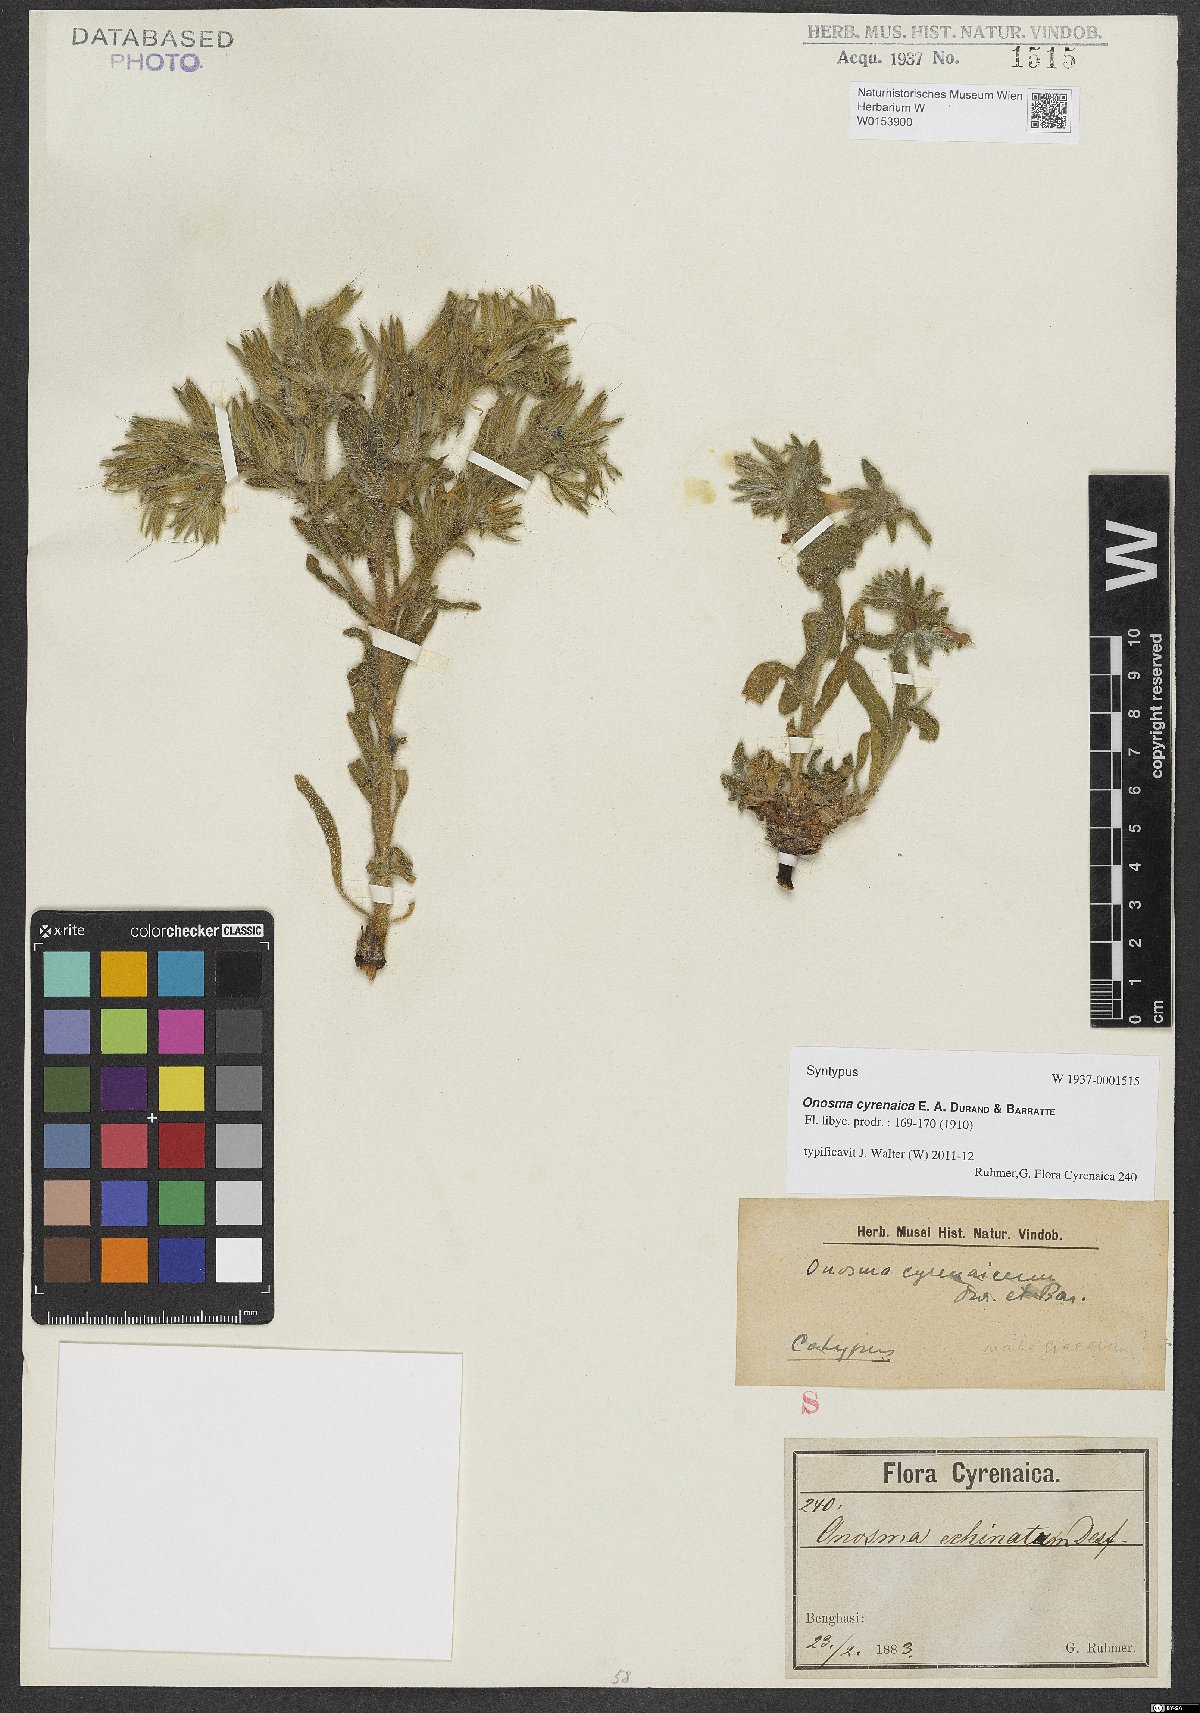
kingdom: Plantae
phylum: Tracheophyta
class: Magnoliopsida
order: Boraginales
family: Boraginaceae
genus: Onosma
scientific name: Onosma cyrenaica
